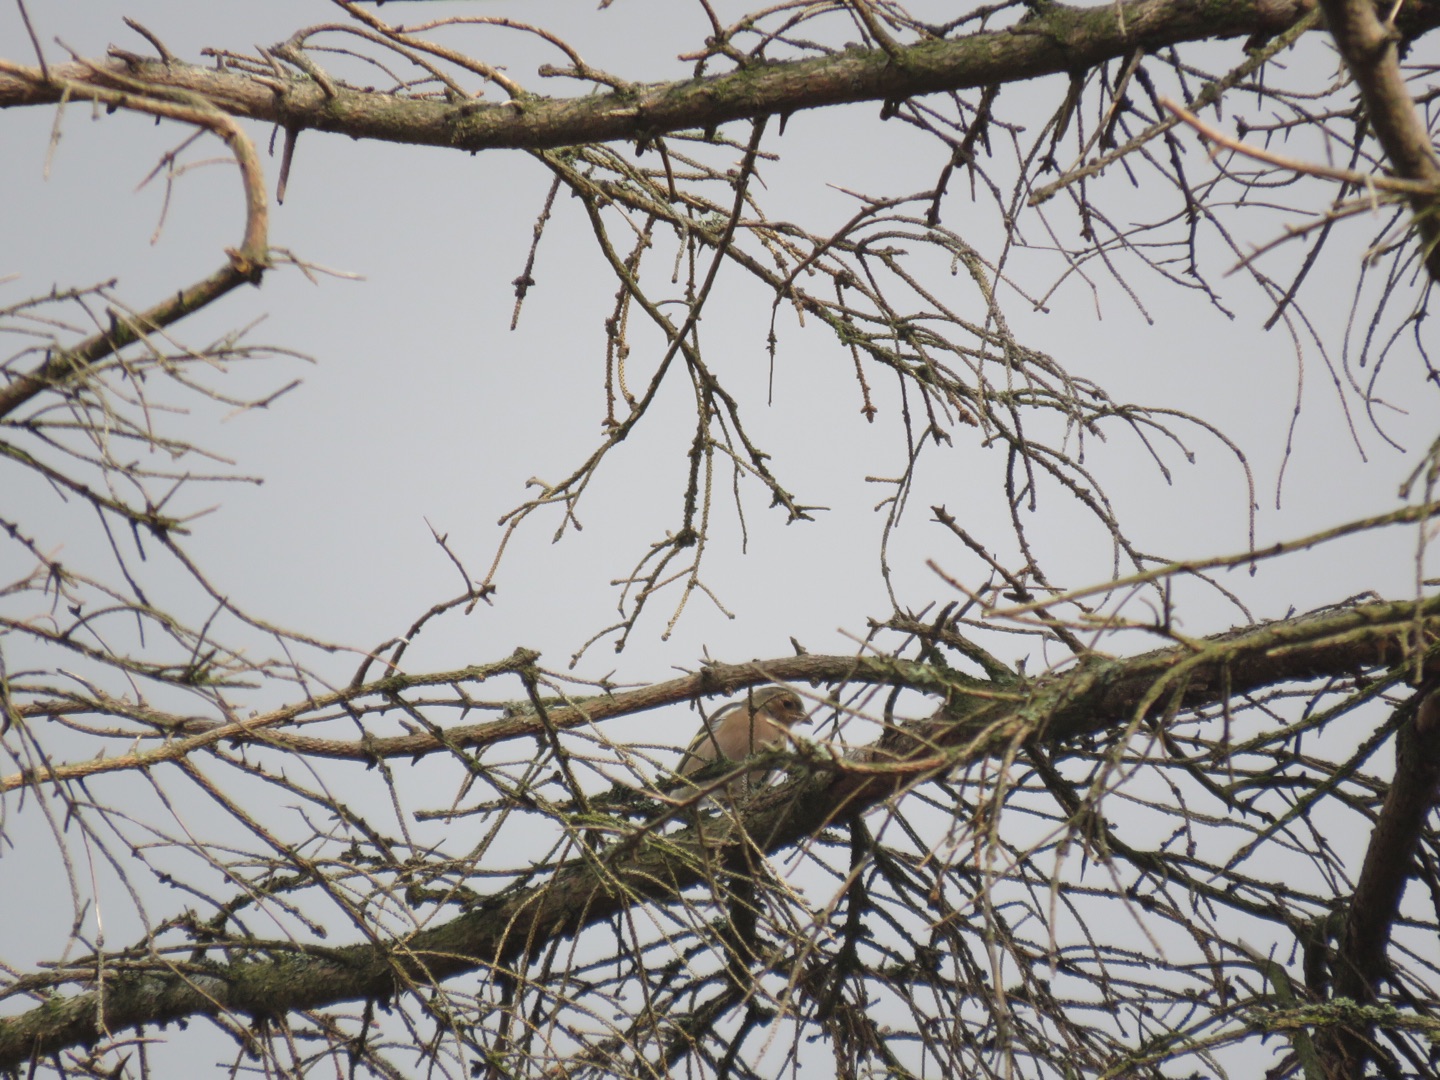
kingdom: Animalia
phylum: Chordata
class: Aves
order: Passeriformes
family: Fringillidae
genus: Fringilla
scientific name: Fringilla coelebs
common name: Bogfinke
